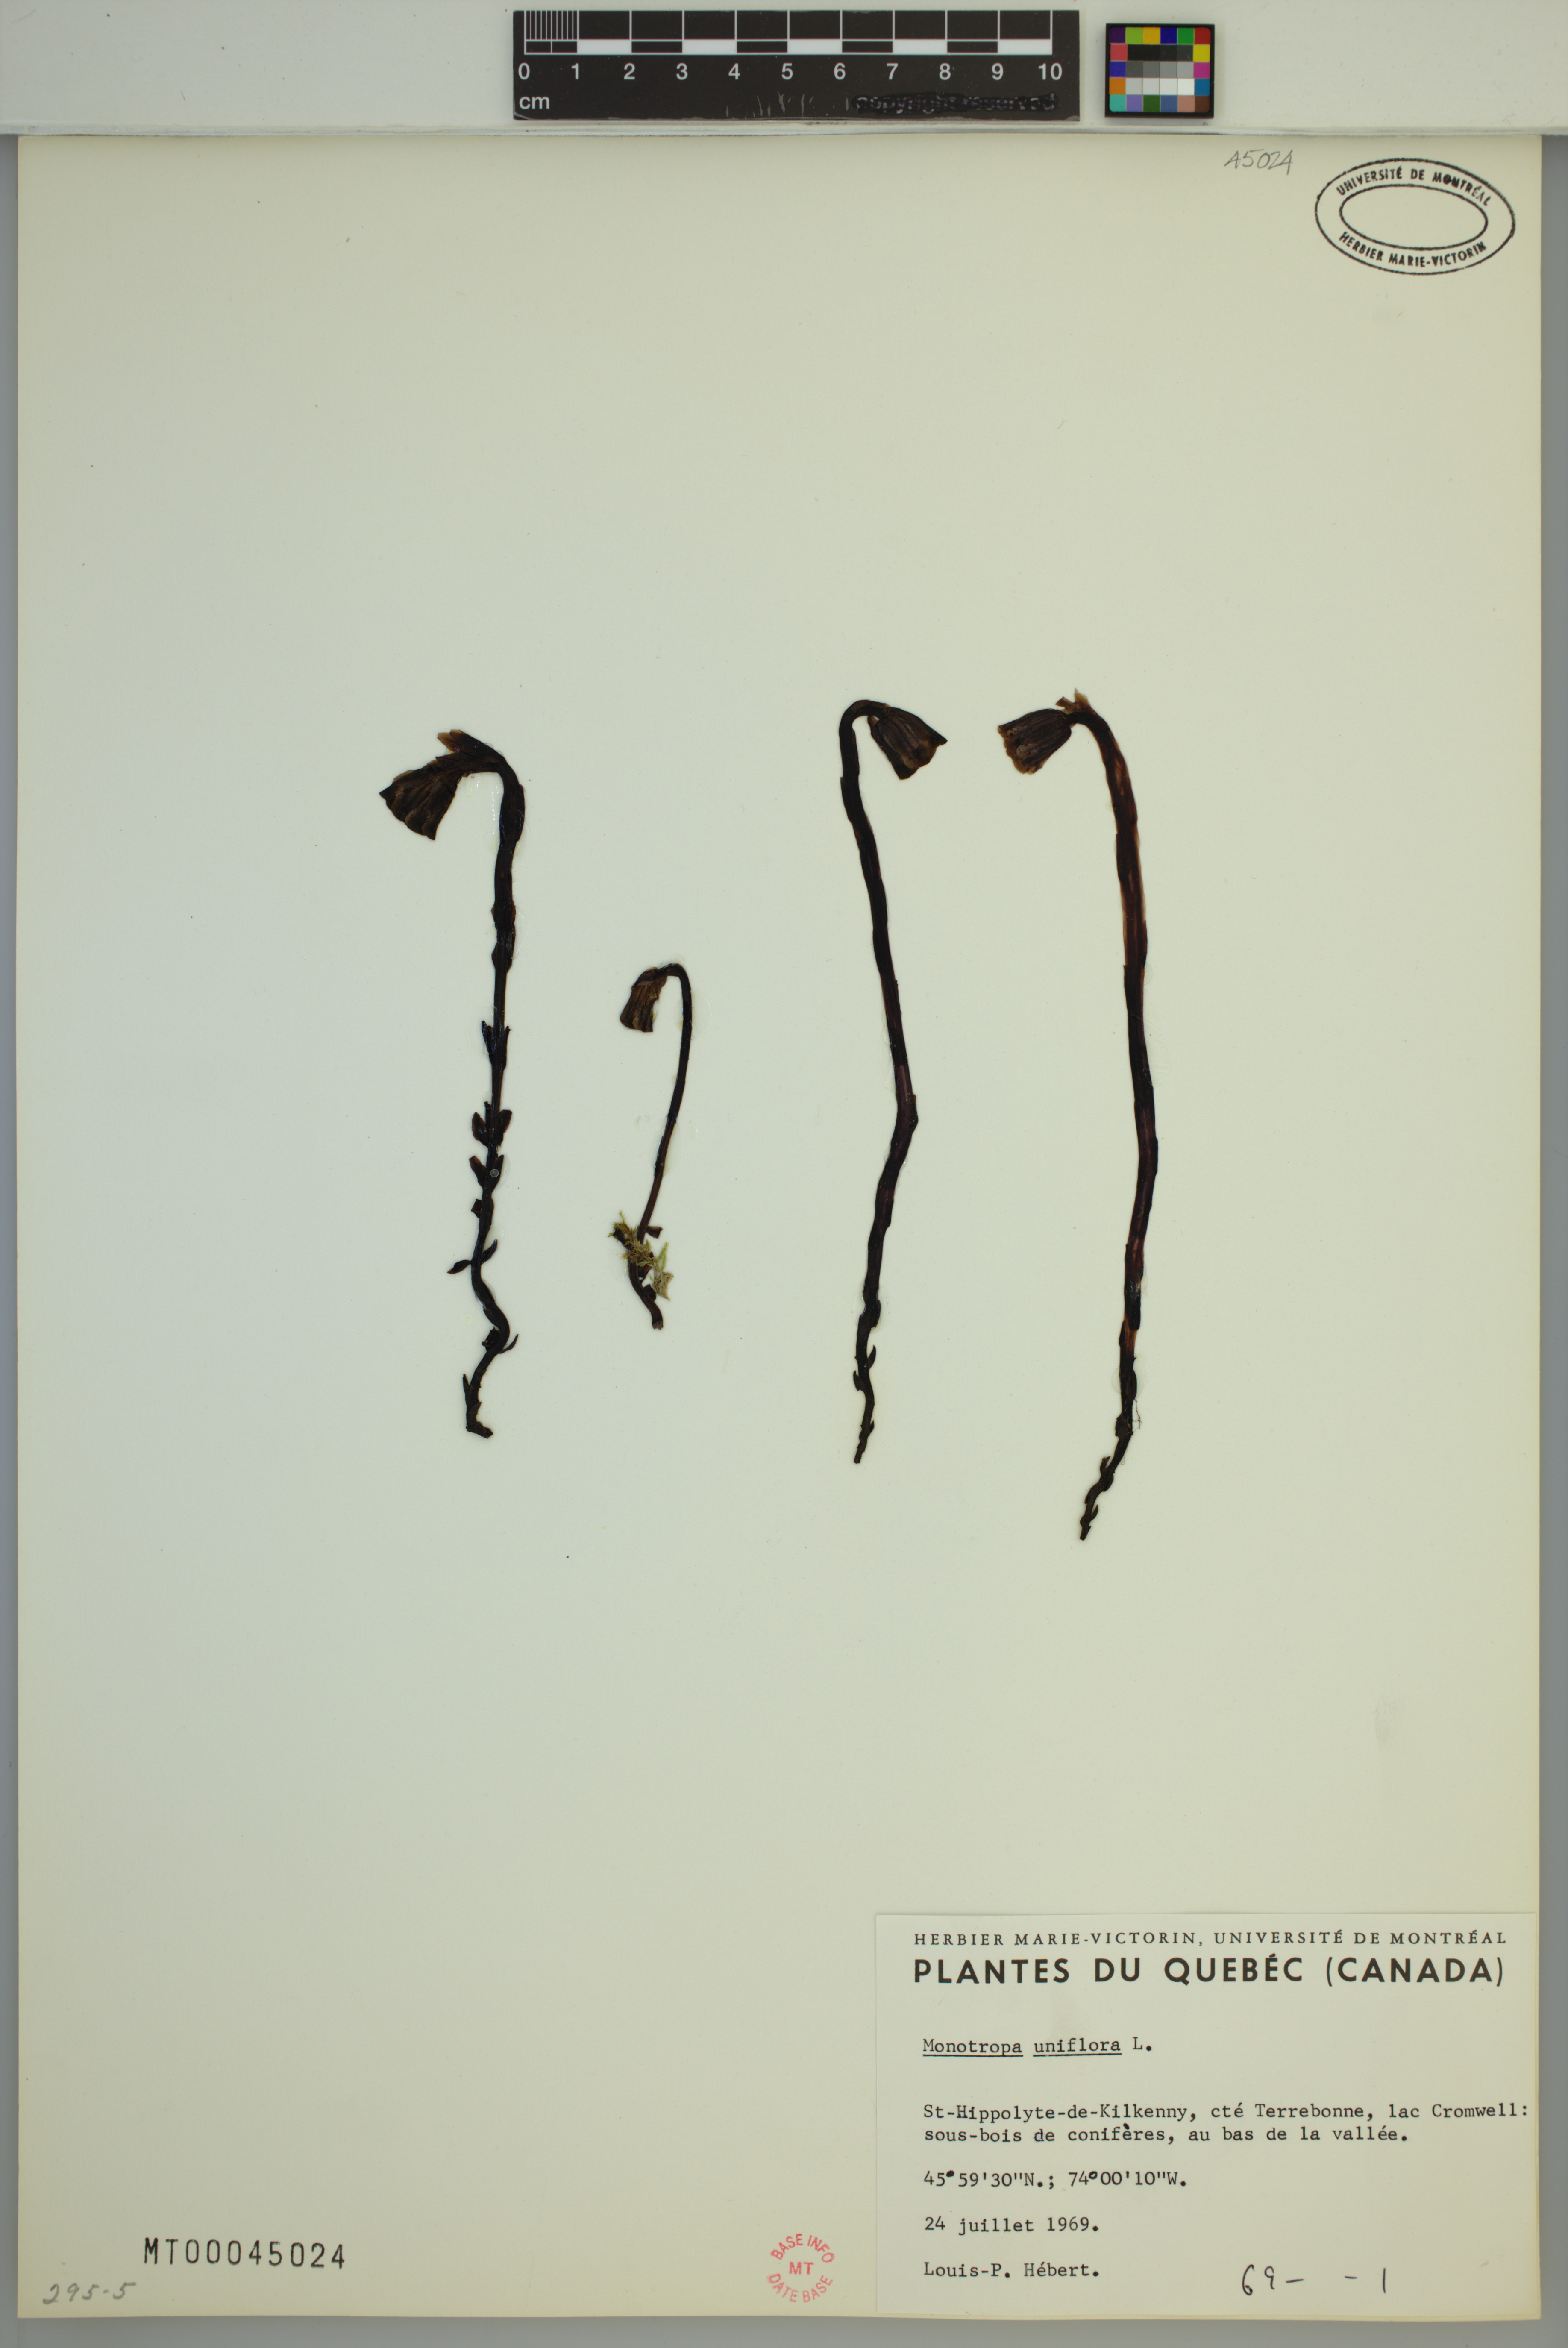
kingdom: Plantae
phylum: Tracheophyta
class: Magnoliopsida
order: Ericales
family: Ericaceae
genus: Monotropa
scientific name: Monotropa uniflora
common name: Convulsion root
